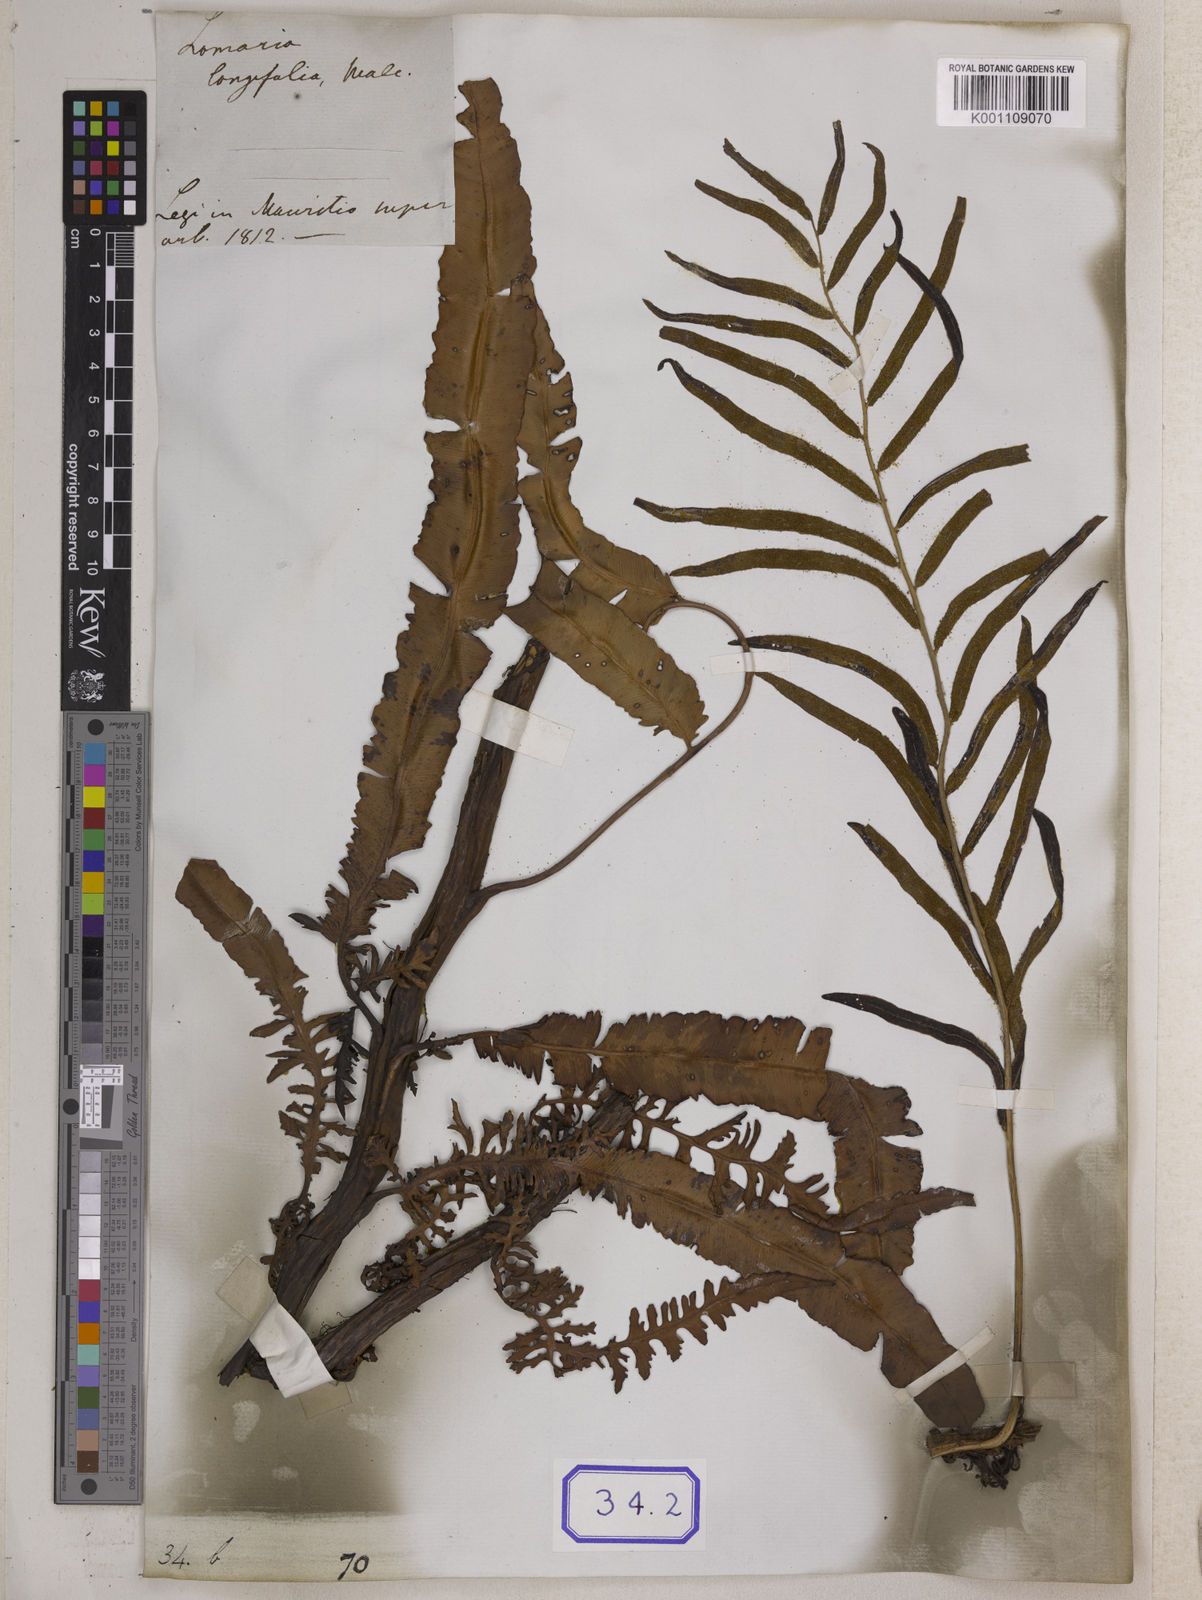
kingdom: Plantae
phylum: Tracheophyta
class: Polypodiopsida
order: Polypodiales
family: Blechnaceae
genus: Lomaria
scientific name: Lomaria
